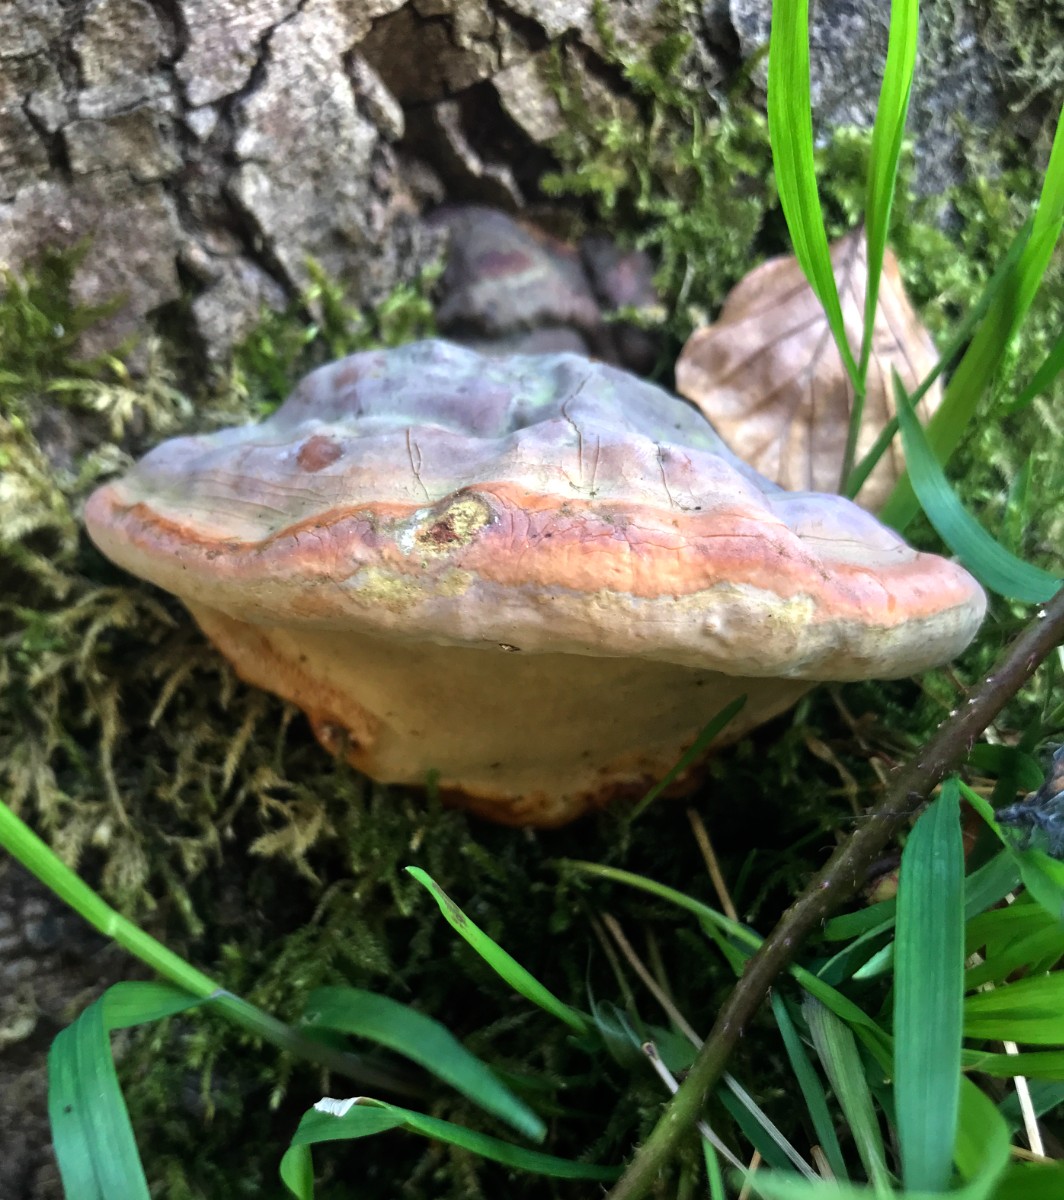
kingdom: Fungi
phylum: Basidiomycota
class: Agaricomycetes
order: Polyporales
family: Polyporaceae
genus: Ganoderma
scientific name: Ganoderma pfeifferi
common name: kobberrød lakporesvamp
